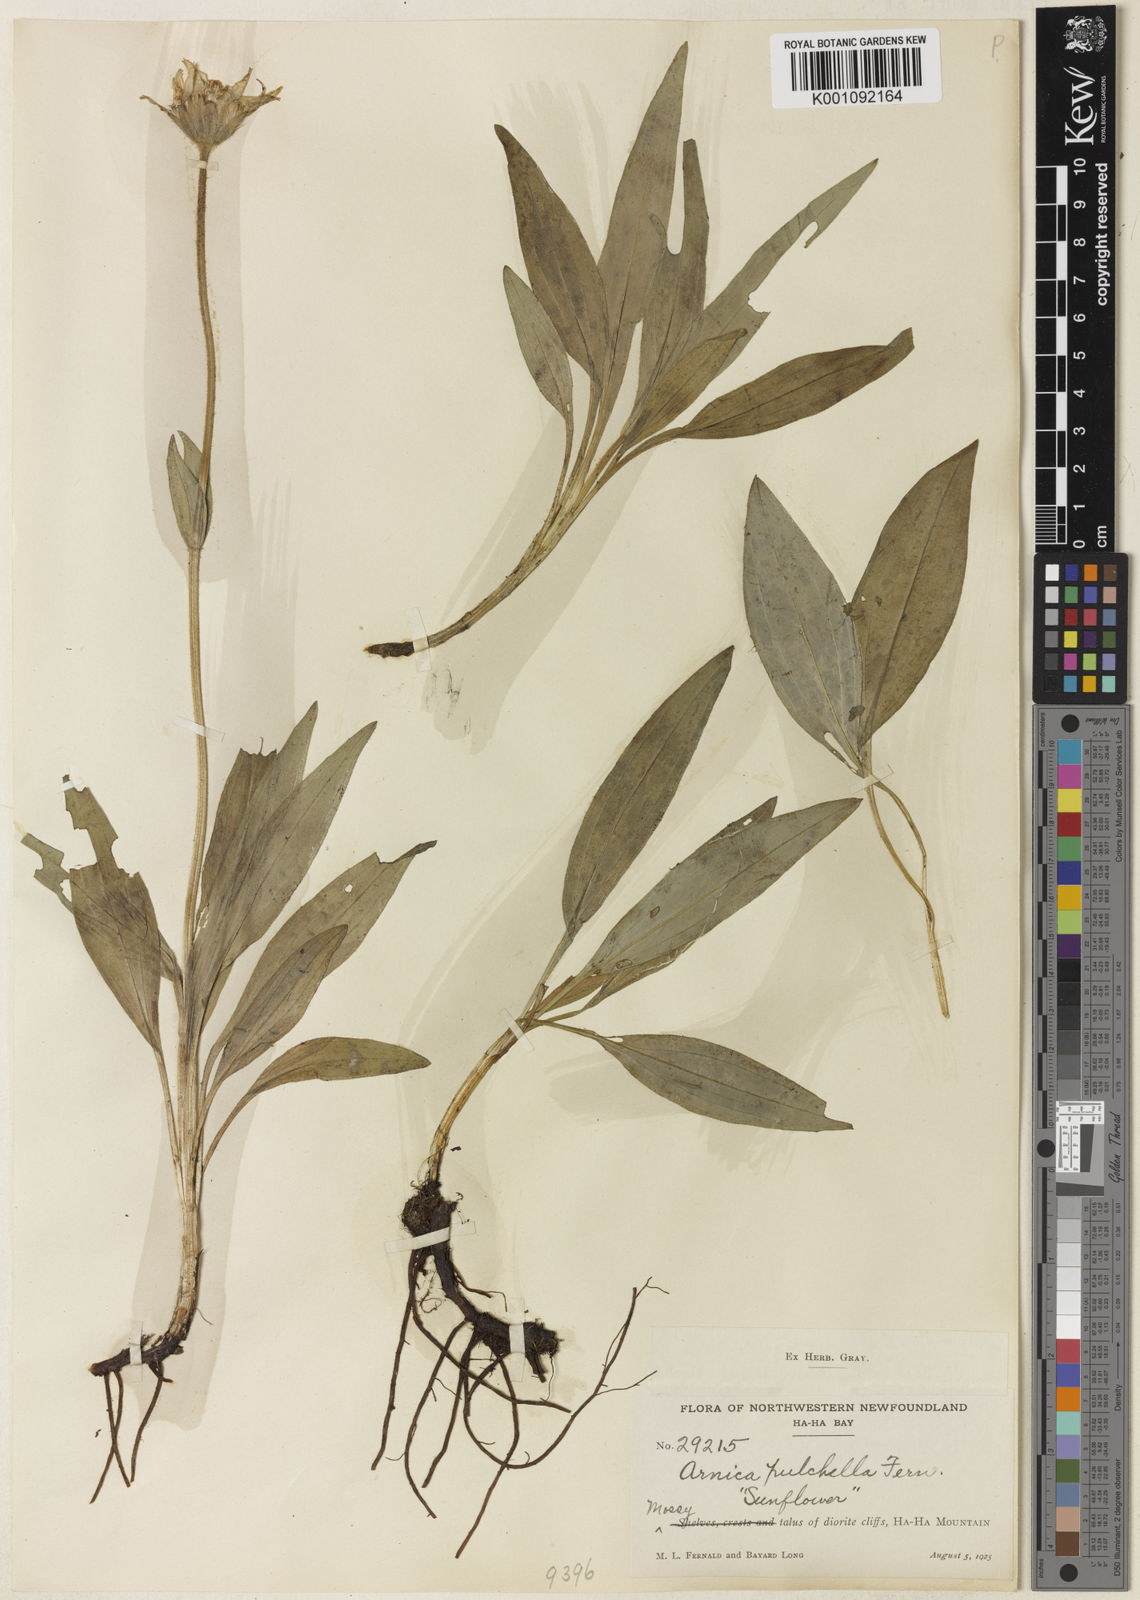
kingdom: Plantae
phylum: Tracheophyta
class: Magnoliopsida
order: Asterales
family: Asteraceae
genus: Arnica
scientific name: Arnica angustifolia
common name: Arctic arnica
